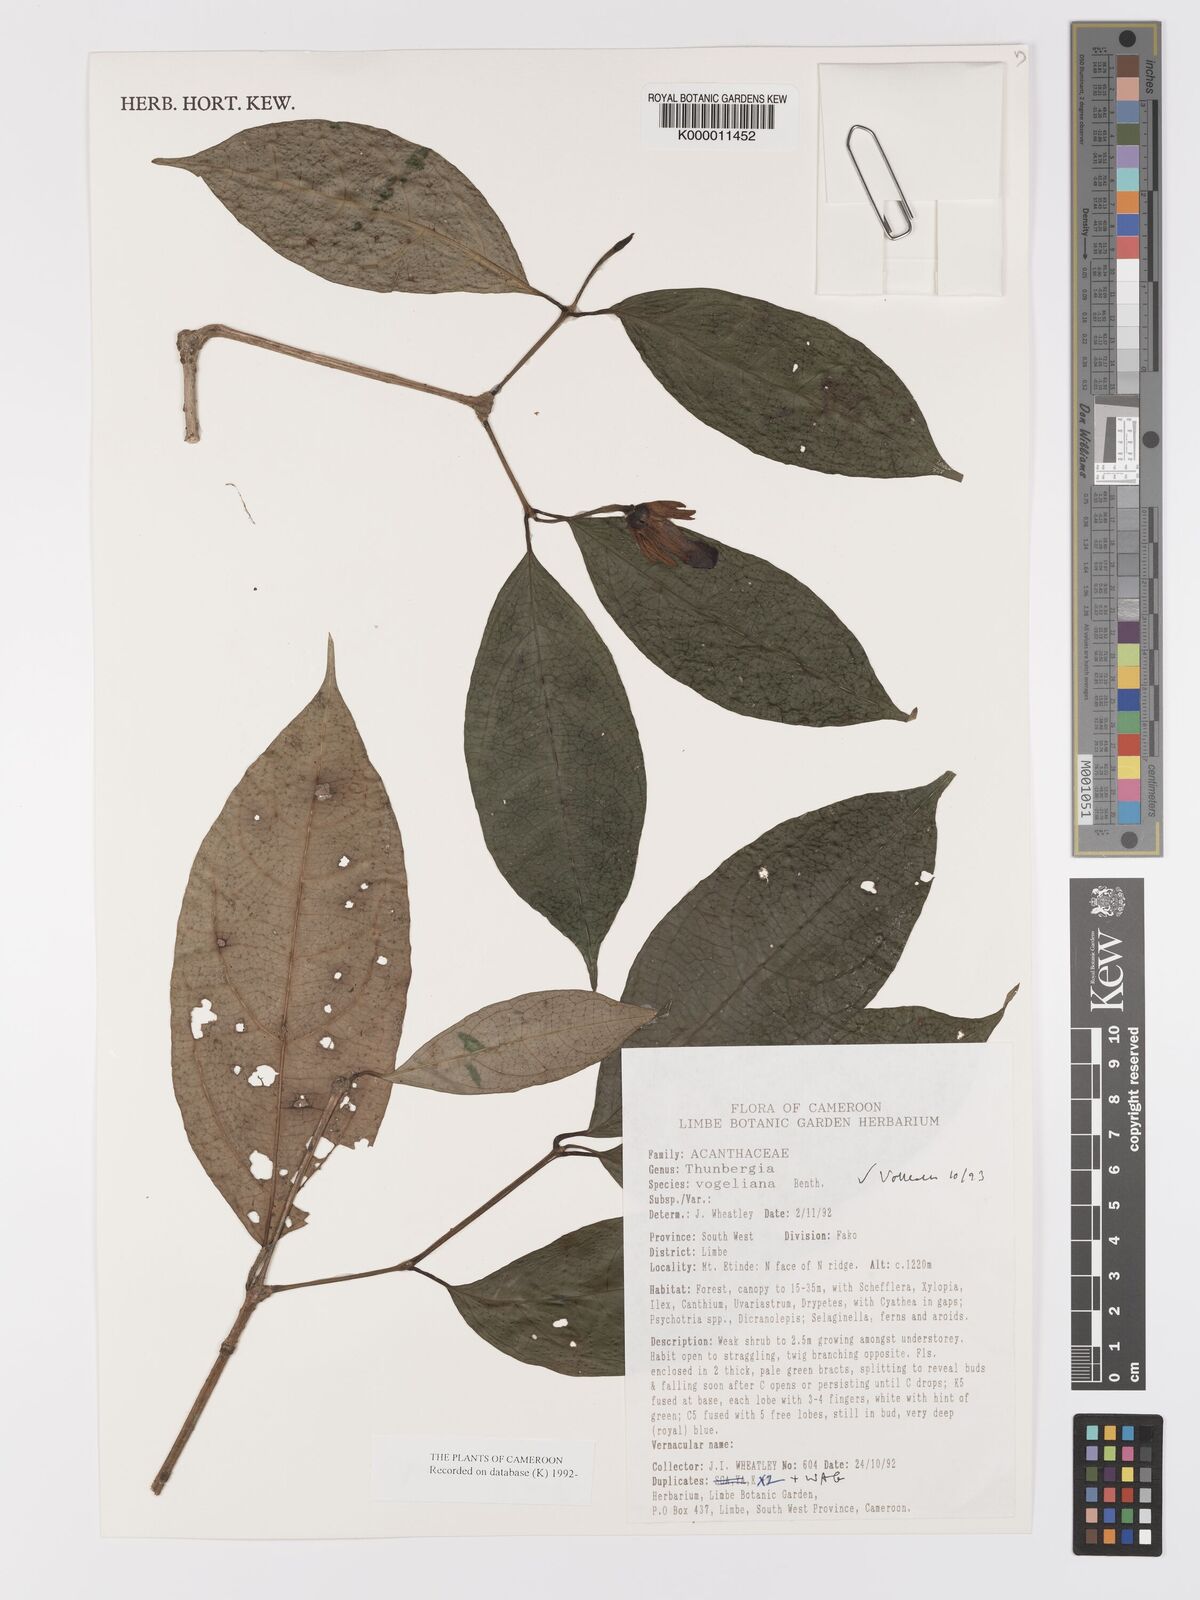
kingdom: Plantae
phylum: Tracheophyta
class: Magnoliopsida
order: Lamiales
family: Acanthaceae
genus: Thunbergia
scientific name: Thunbergia vogeliana
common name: Acanthaceae
